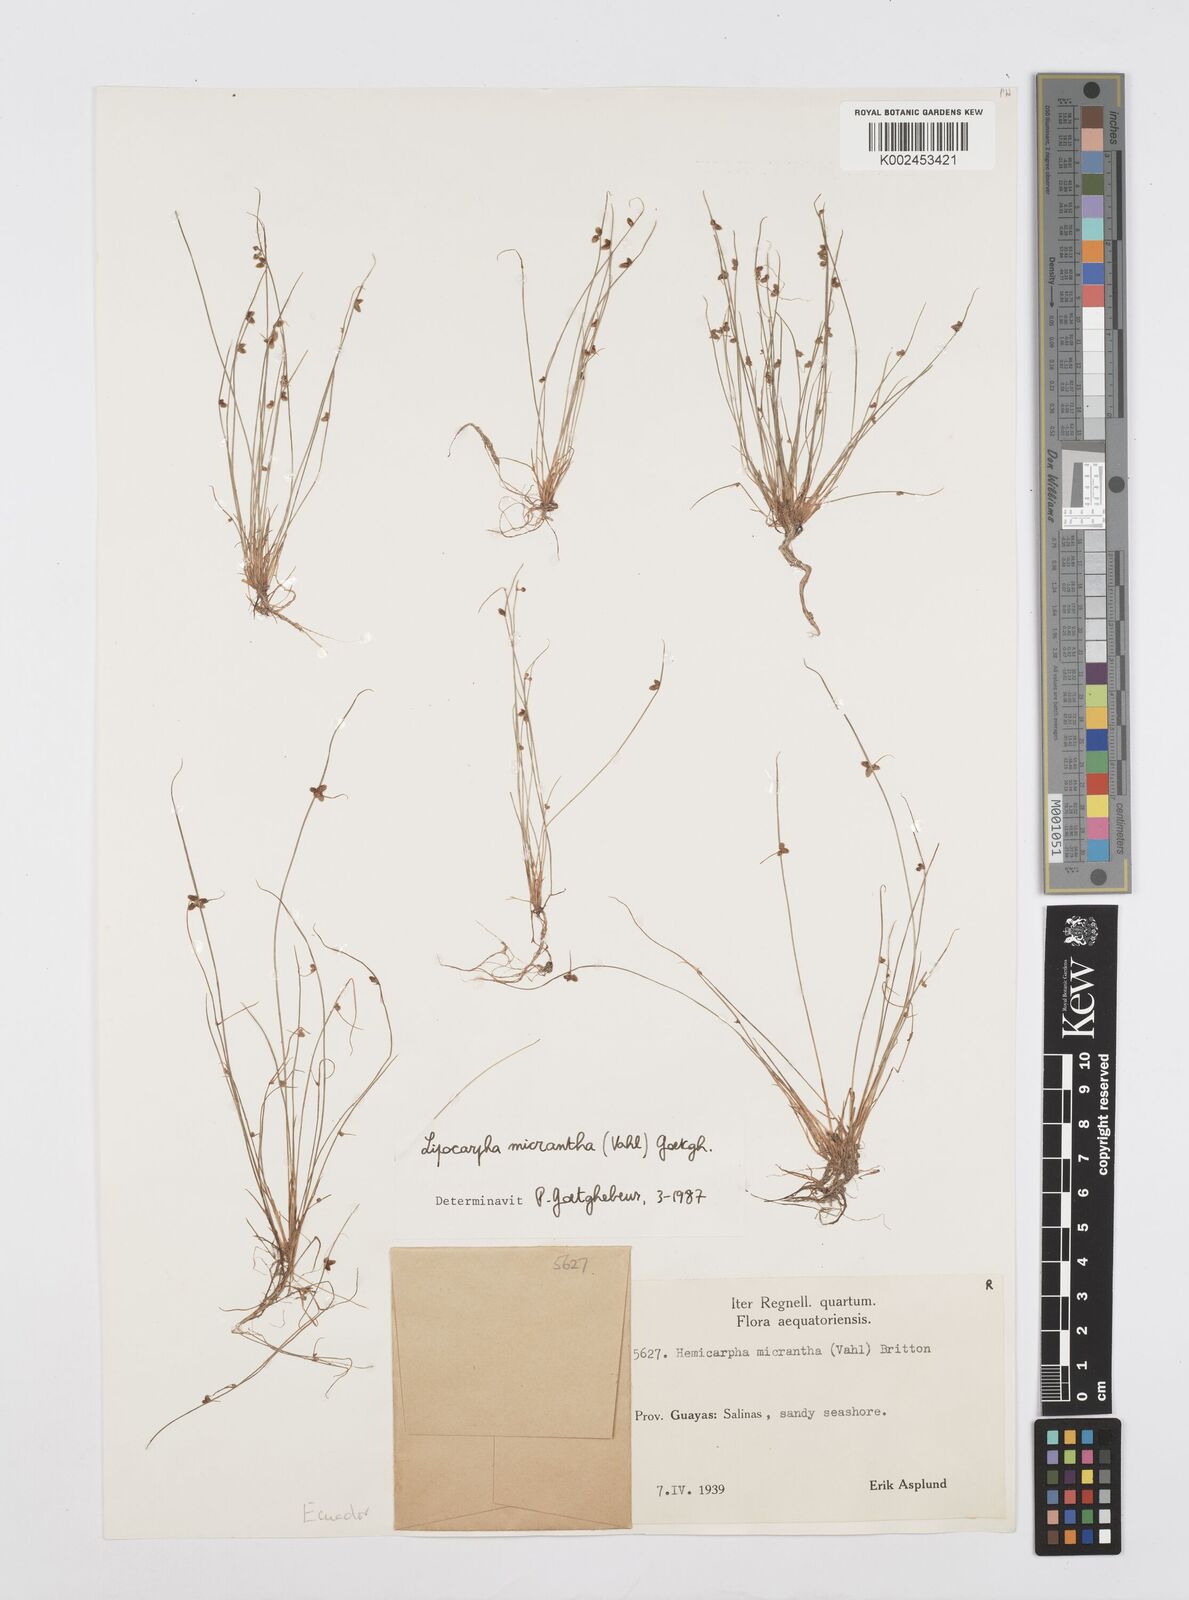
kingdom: Plantae
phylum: Tracheophyta
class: Liliopsida
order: Poales
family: Cyperaceae
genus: Cyperus
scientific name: Cyperus dentatus
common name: Dentate umbrella sedge
